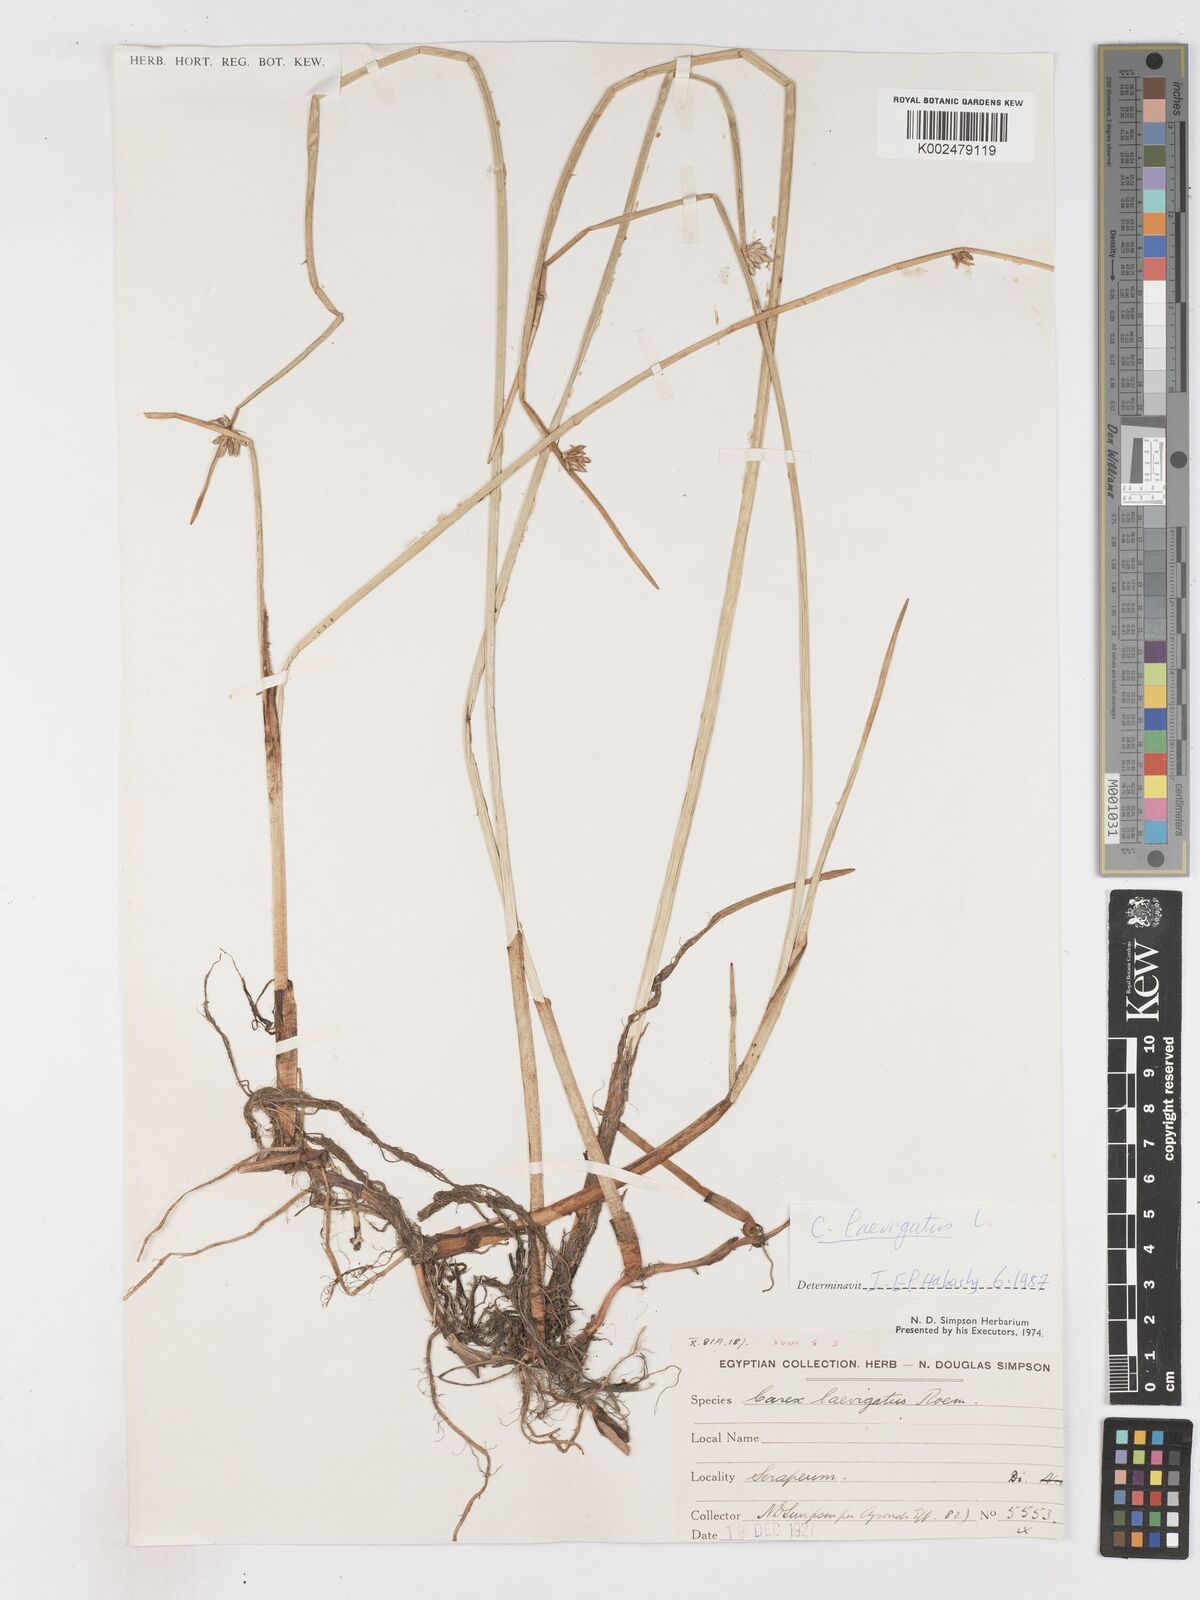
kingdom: Plantae
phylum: Tracheophyta
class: Liliopsida
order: Poales
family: Cyperaceae
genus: Cyperus
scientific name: Cyperus laevigatus
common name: Smooth flat sedge
